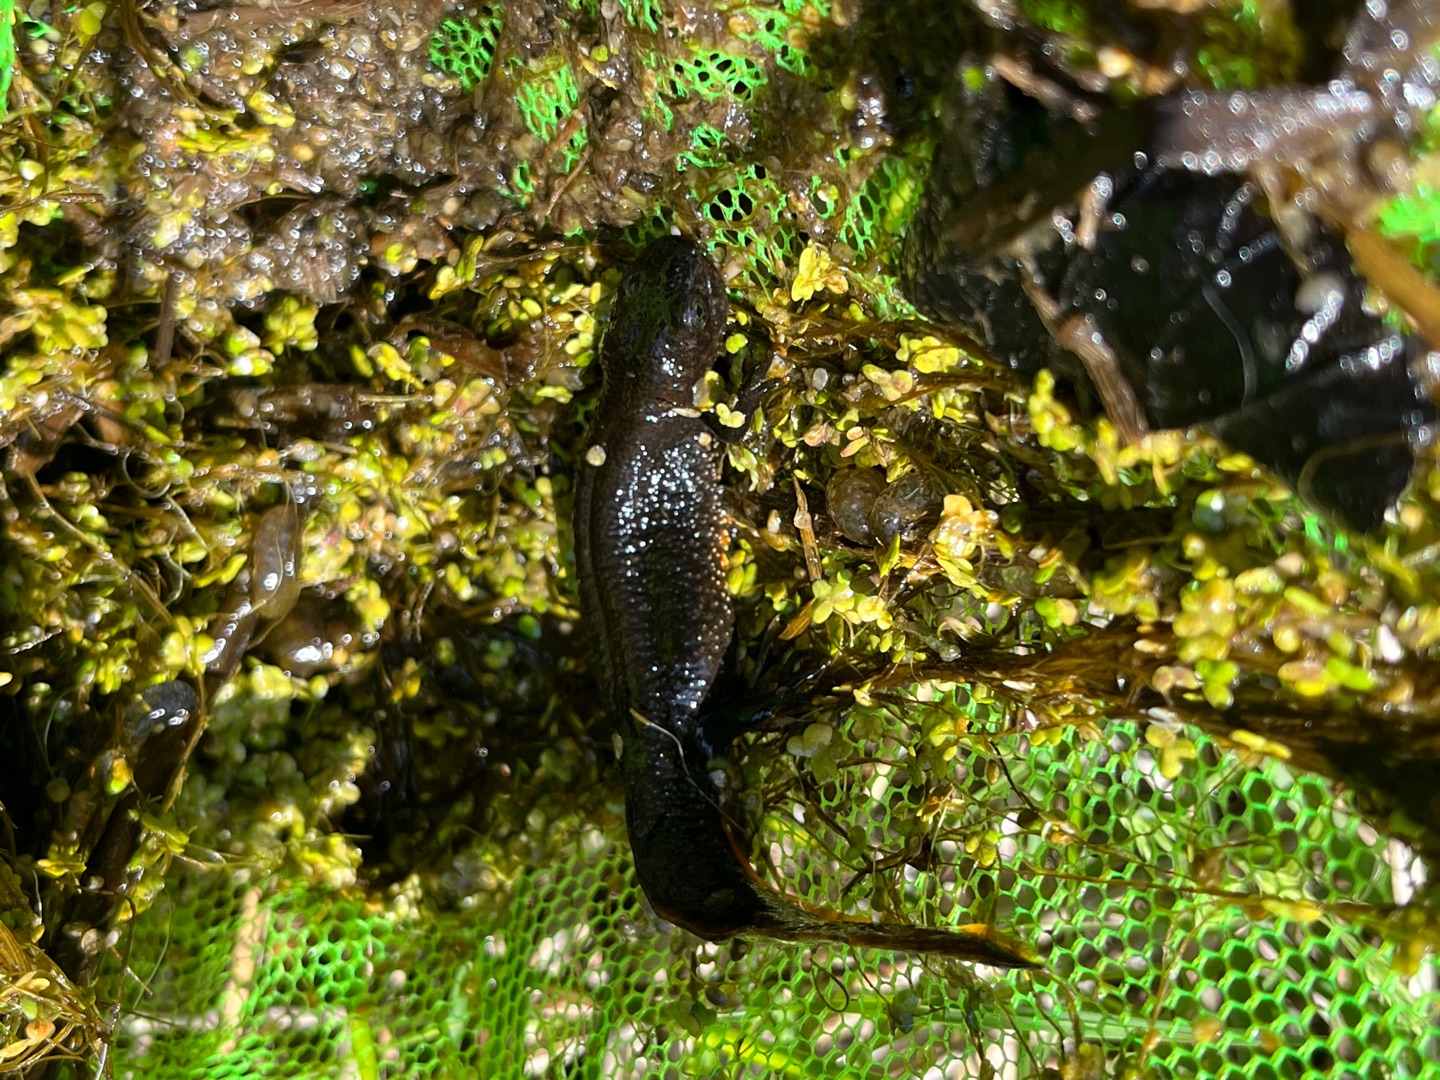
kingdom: Animalia
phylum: Chordata
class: Amphibia
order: Caudata
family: Salamandridae
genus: Triturus
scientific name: Triturus cristatus
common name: Stor vandsalamander
